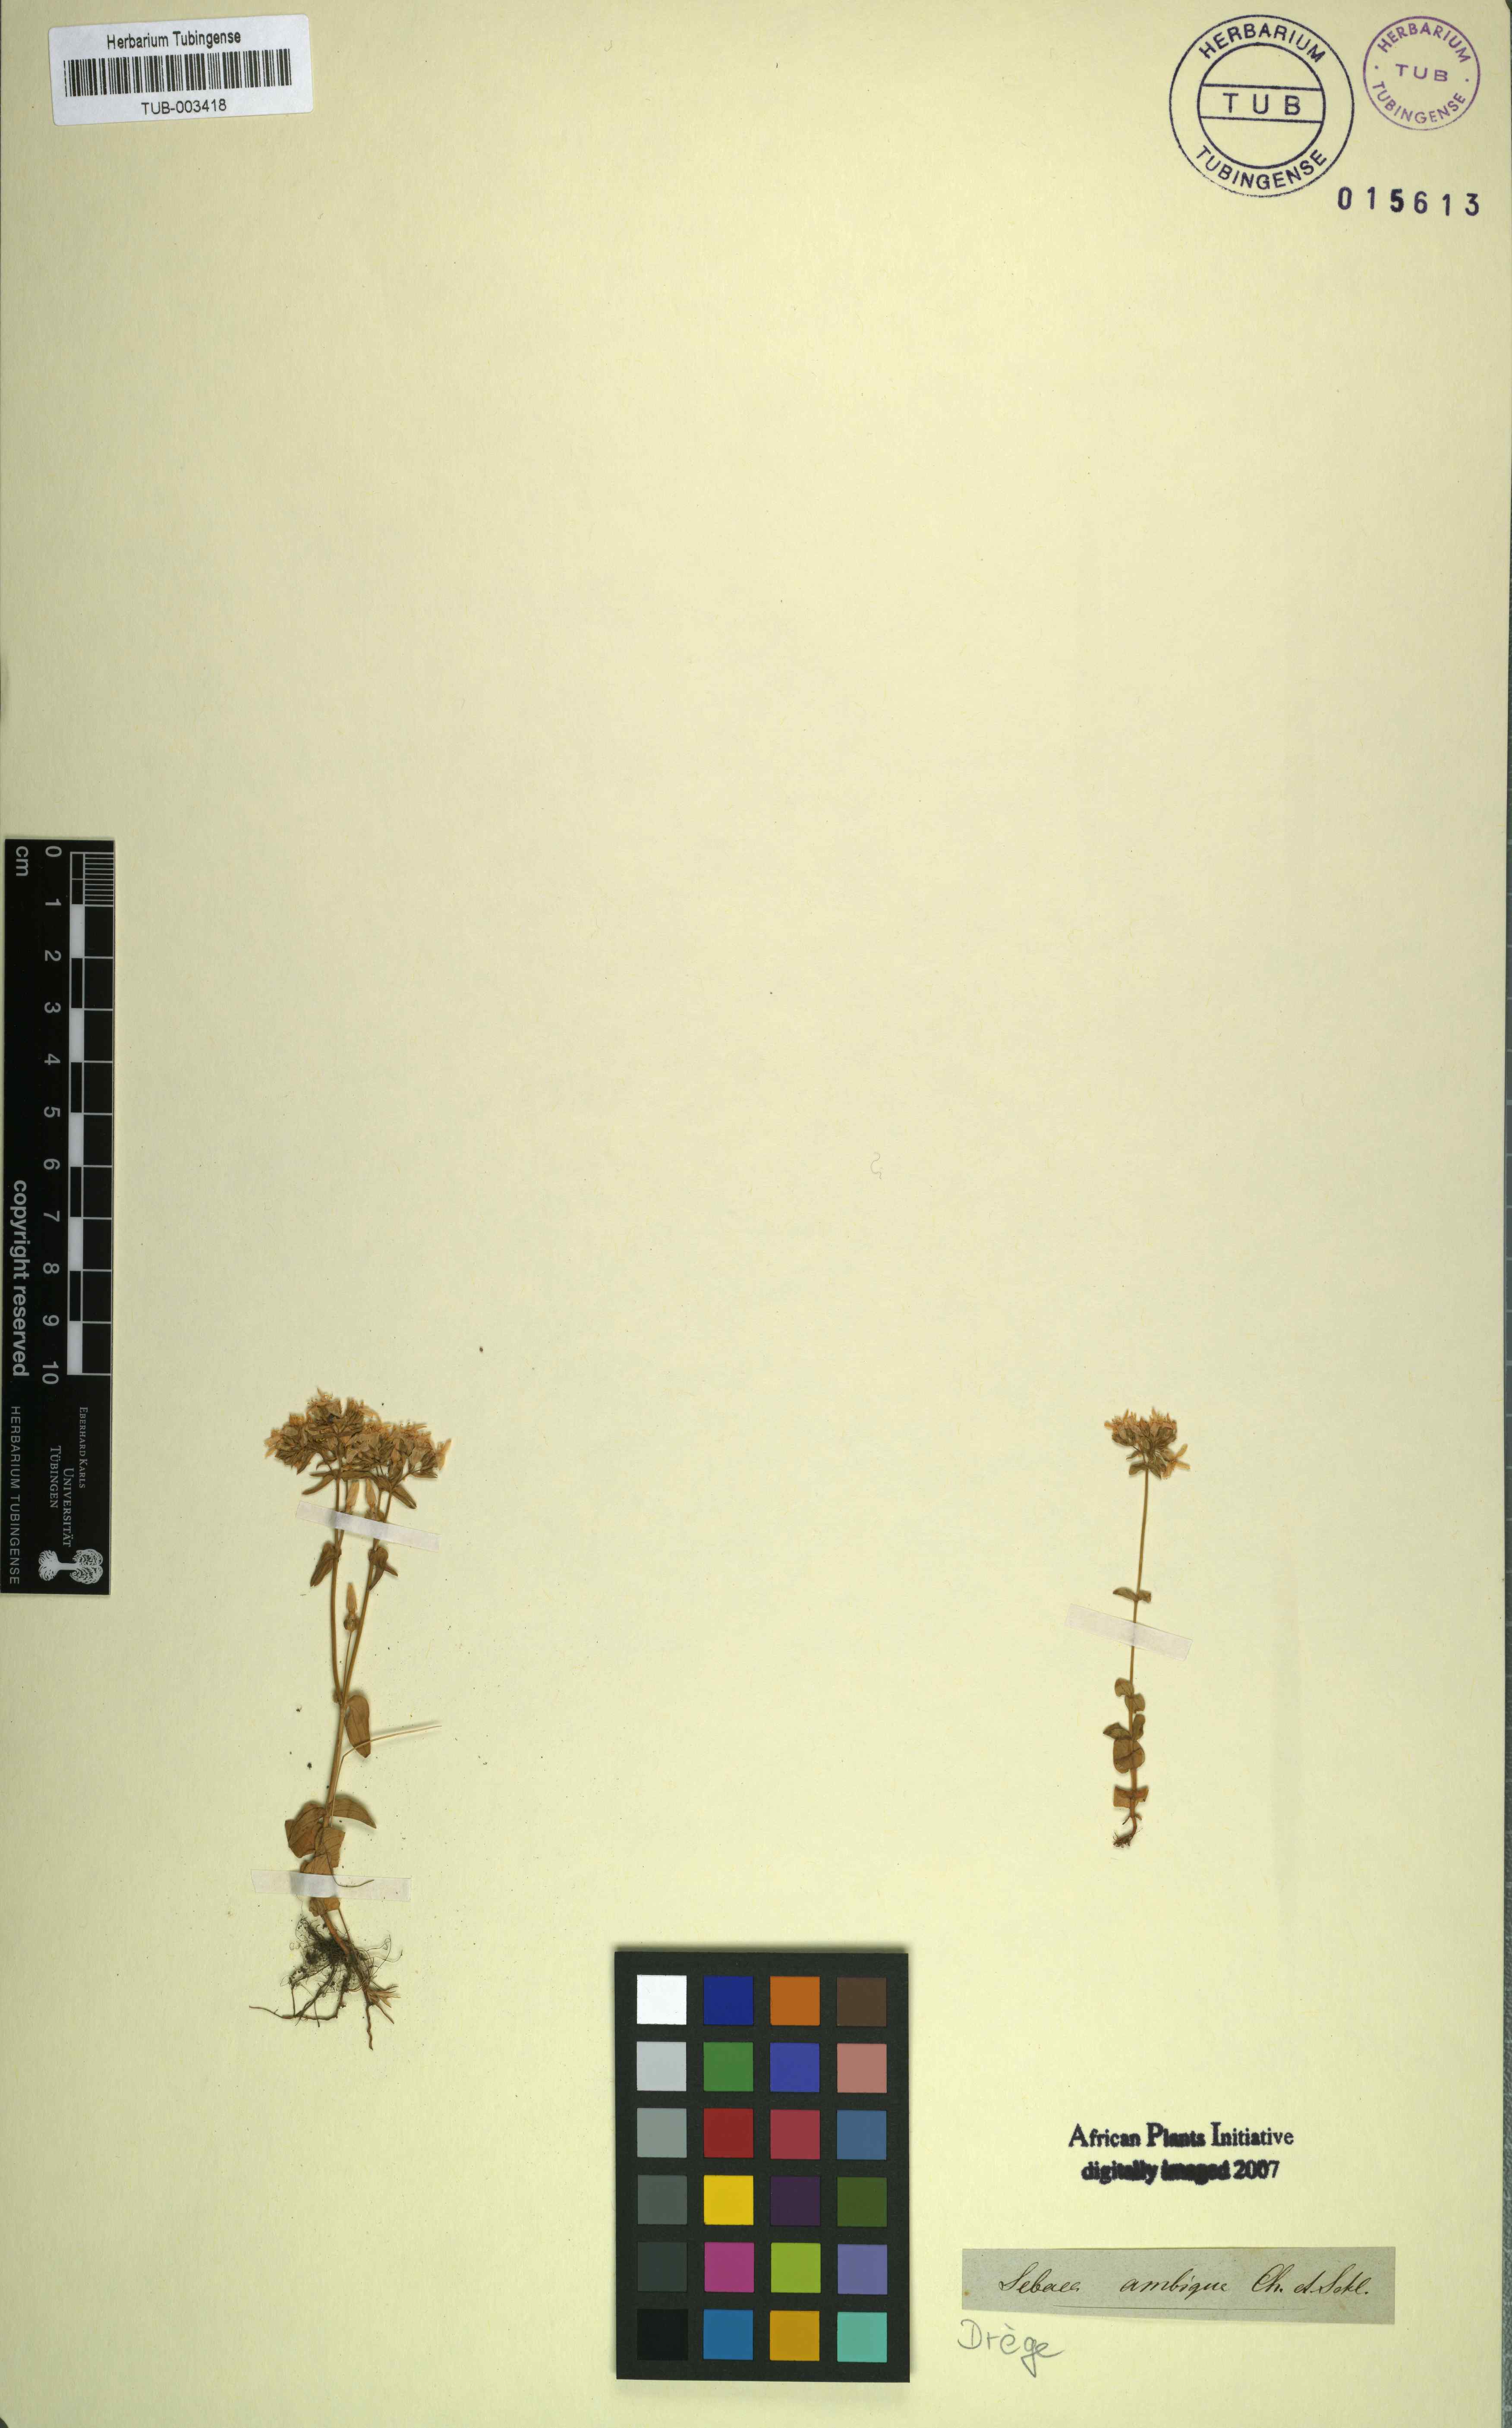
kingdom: Plantae
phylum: Tracheophyta
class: Magnoliopsida
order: Gentianales
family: Gentianaceae
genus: Sebaea
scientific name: Sebaea ambigua
